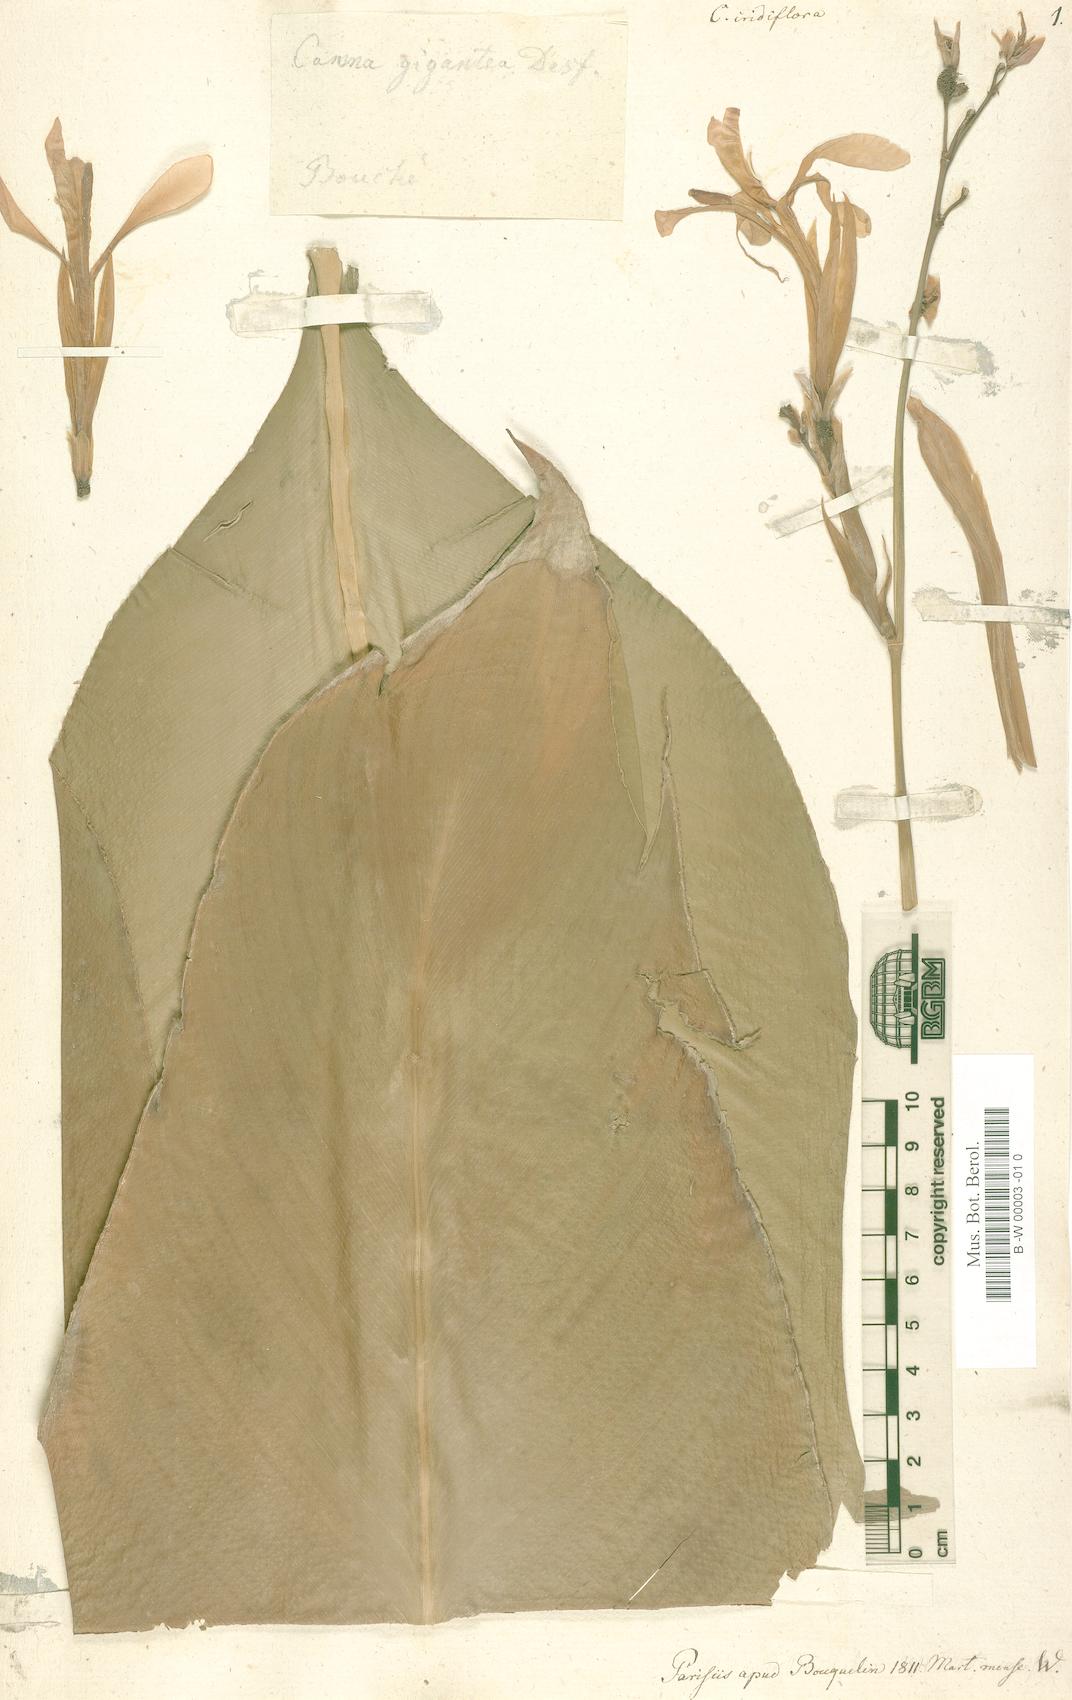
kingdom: Plantae
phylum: Tracheophyta
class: Liliopsida
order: Zingiberales
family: Cannaceae
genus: Canna
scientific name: Canna iridiflora
